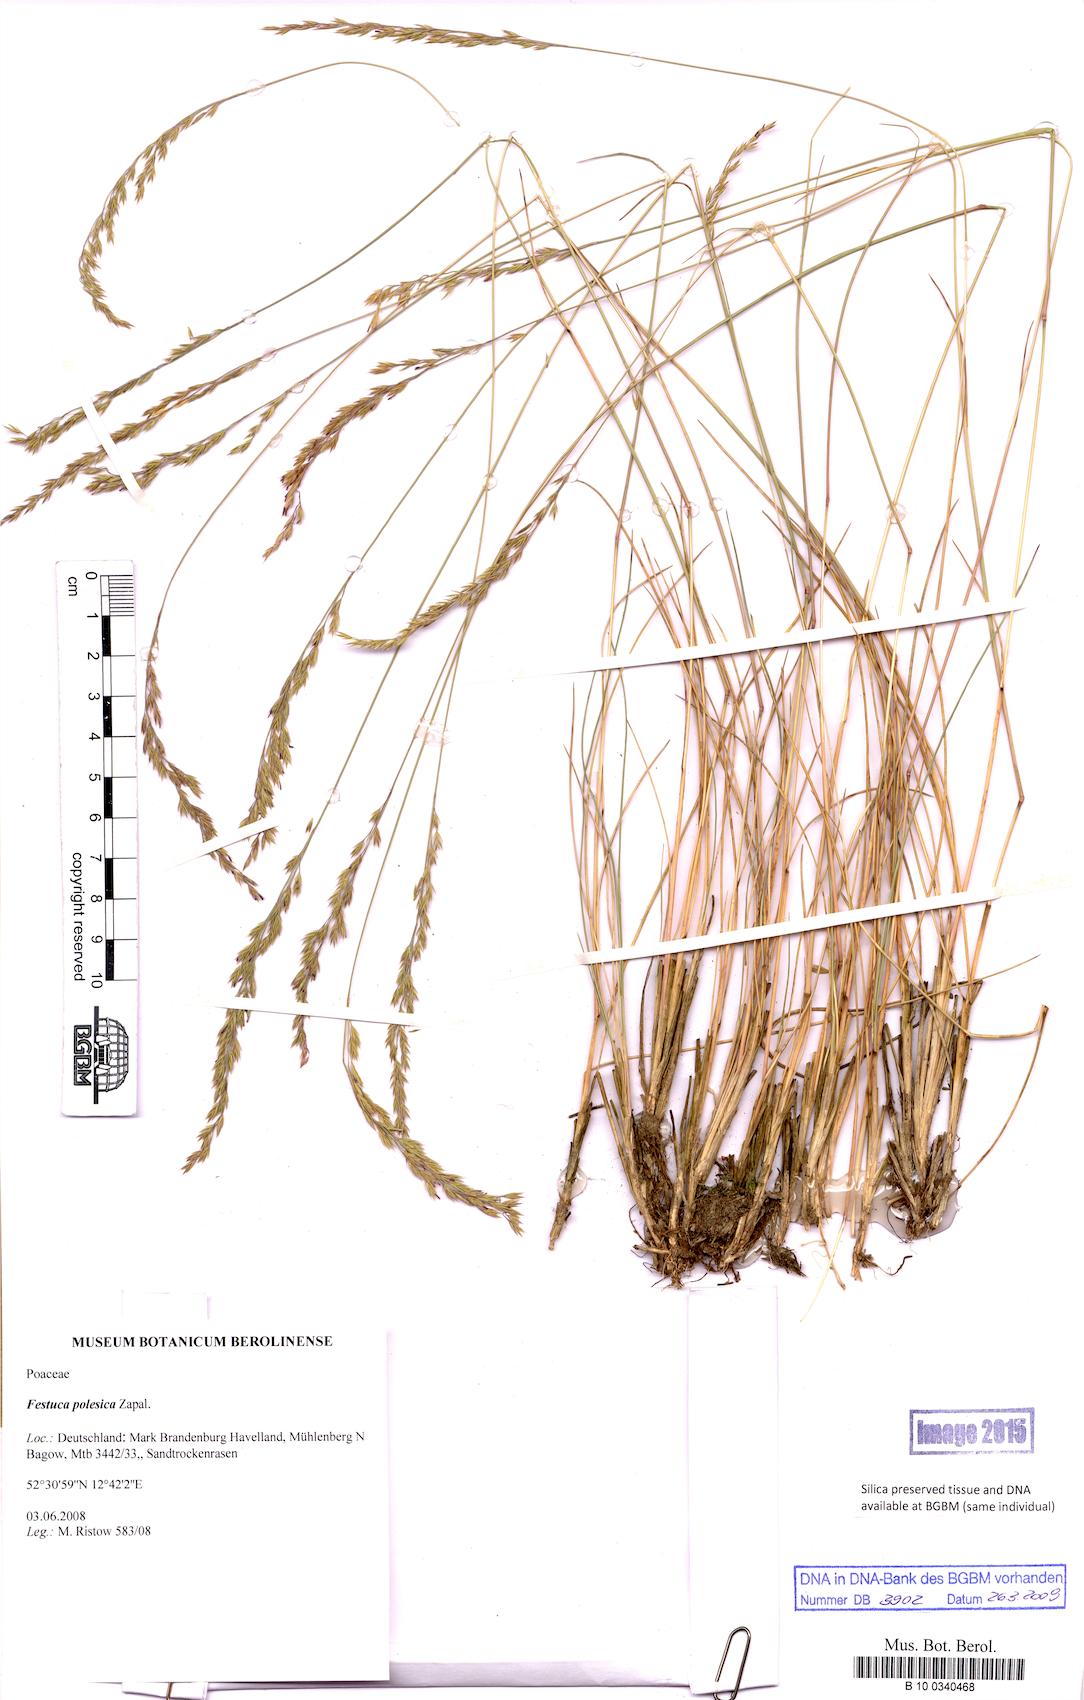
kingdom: Plantae
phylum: Tracheophyta
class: Liliopsida
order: Poales
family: Poaceae
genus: Festuca
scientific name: Festuca beckeri
